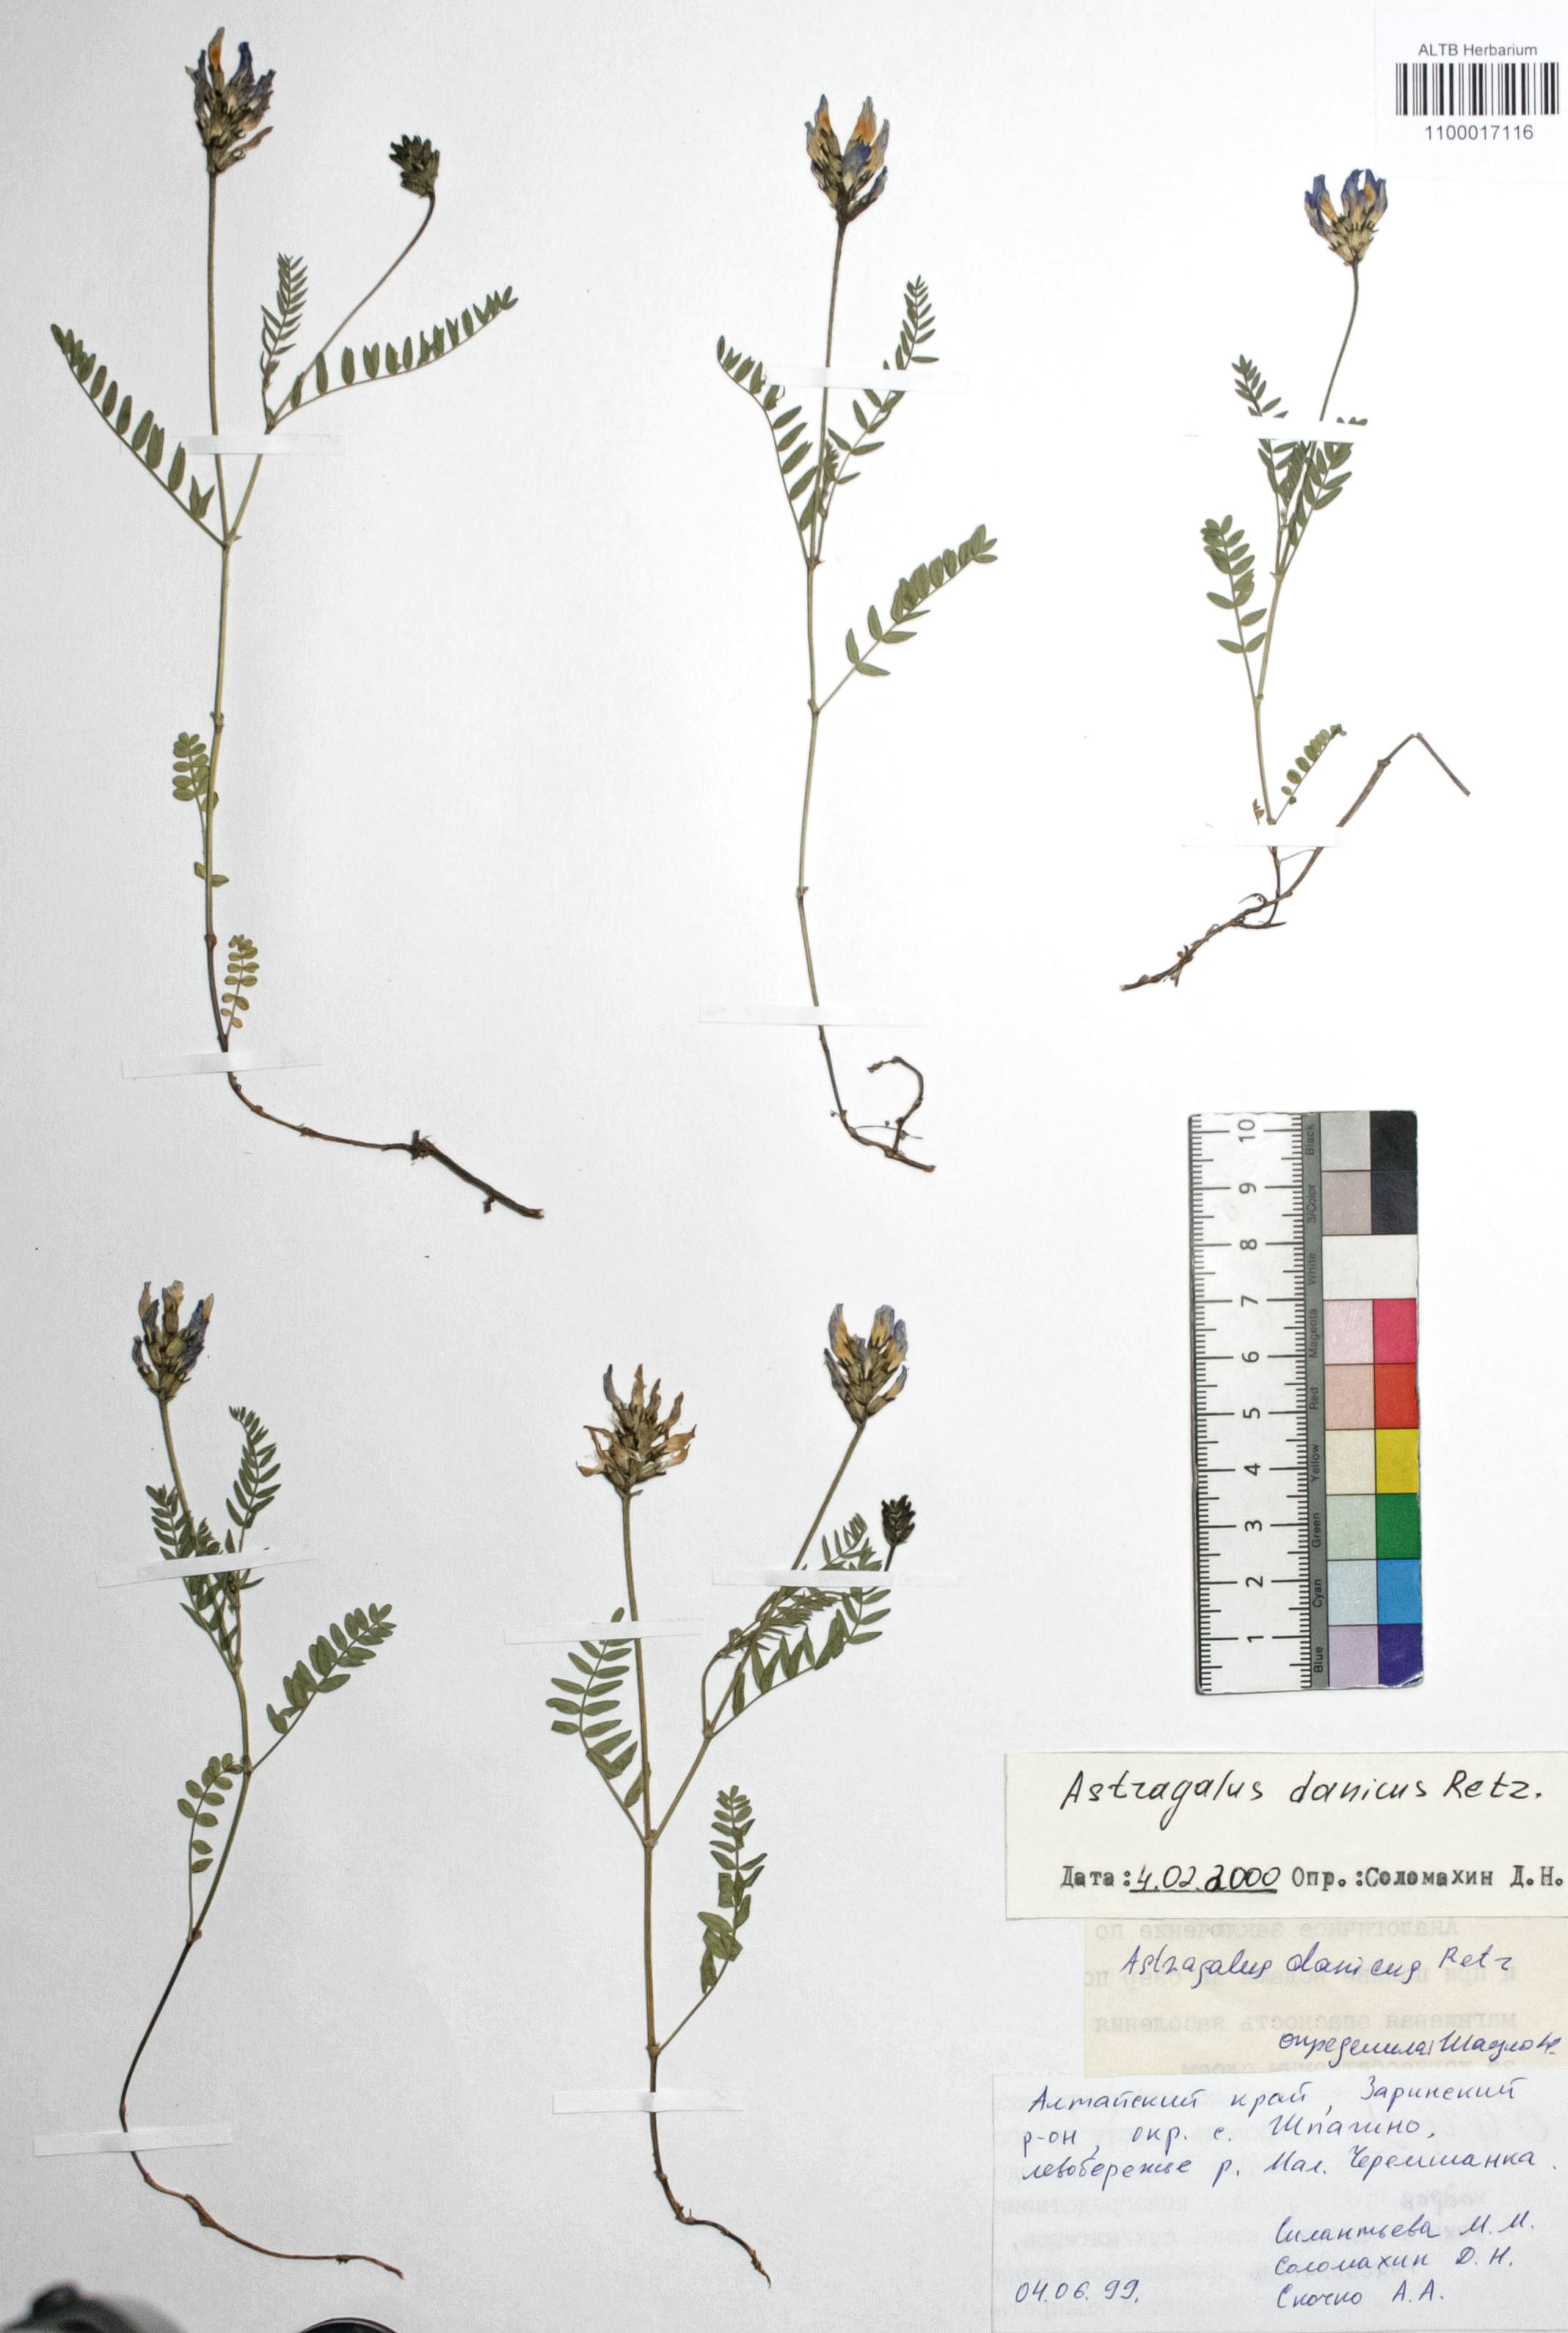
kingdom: Plantae
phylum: Tracheophyta
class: Magnoliopsida
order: Fabales
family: Fabaceae
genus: Astragalus
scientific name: Astragalus danicus
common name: Purple milk-vetch
